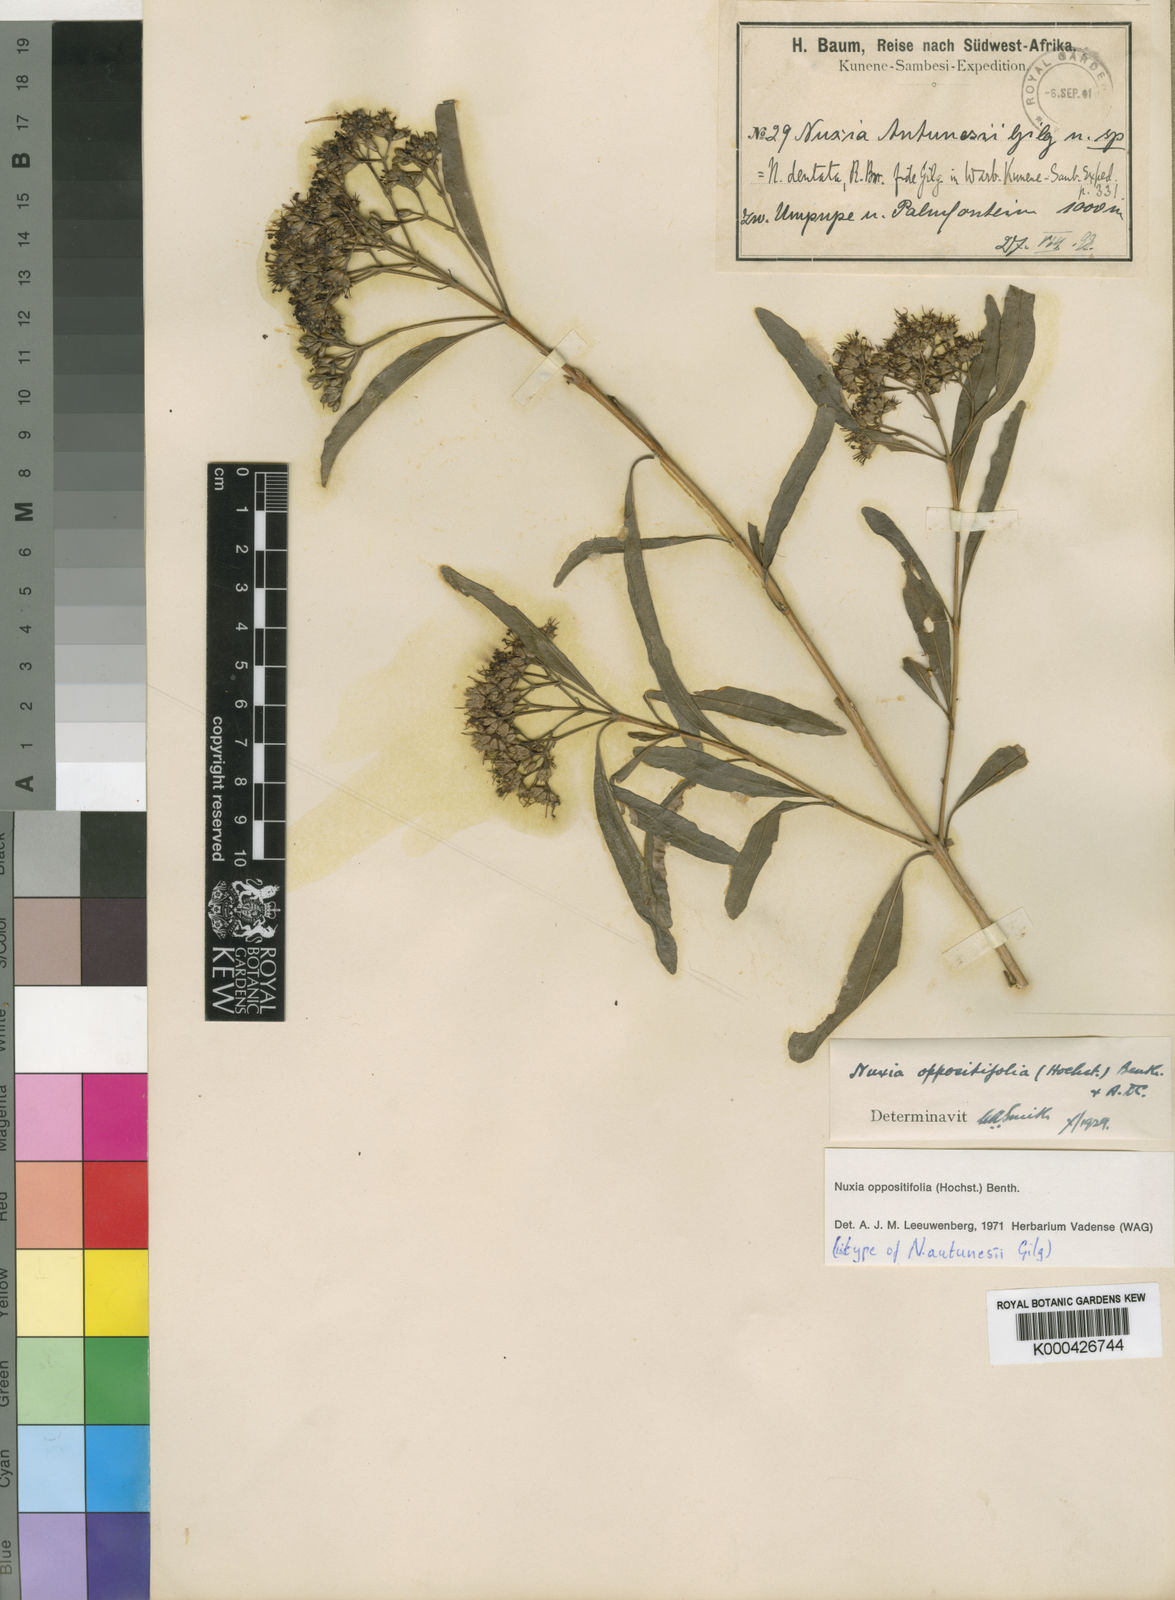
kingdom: Plantae
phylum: Tracheophyta
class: Magnoliopsida
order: Lamiales
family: Stilbaceae
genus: Nuxia
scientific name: Nuxia oppositifolia
